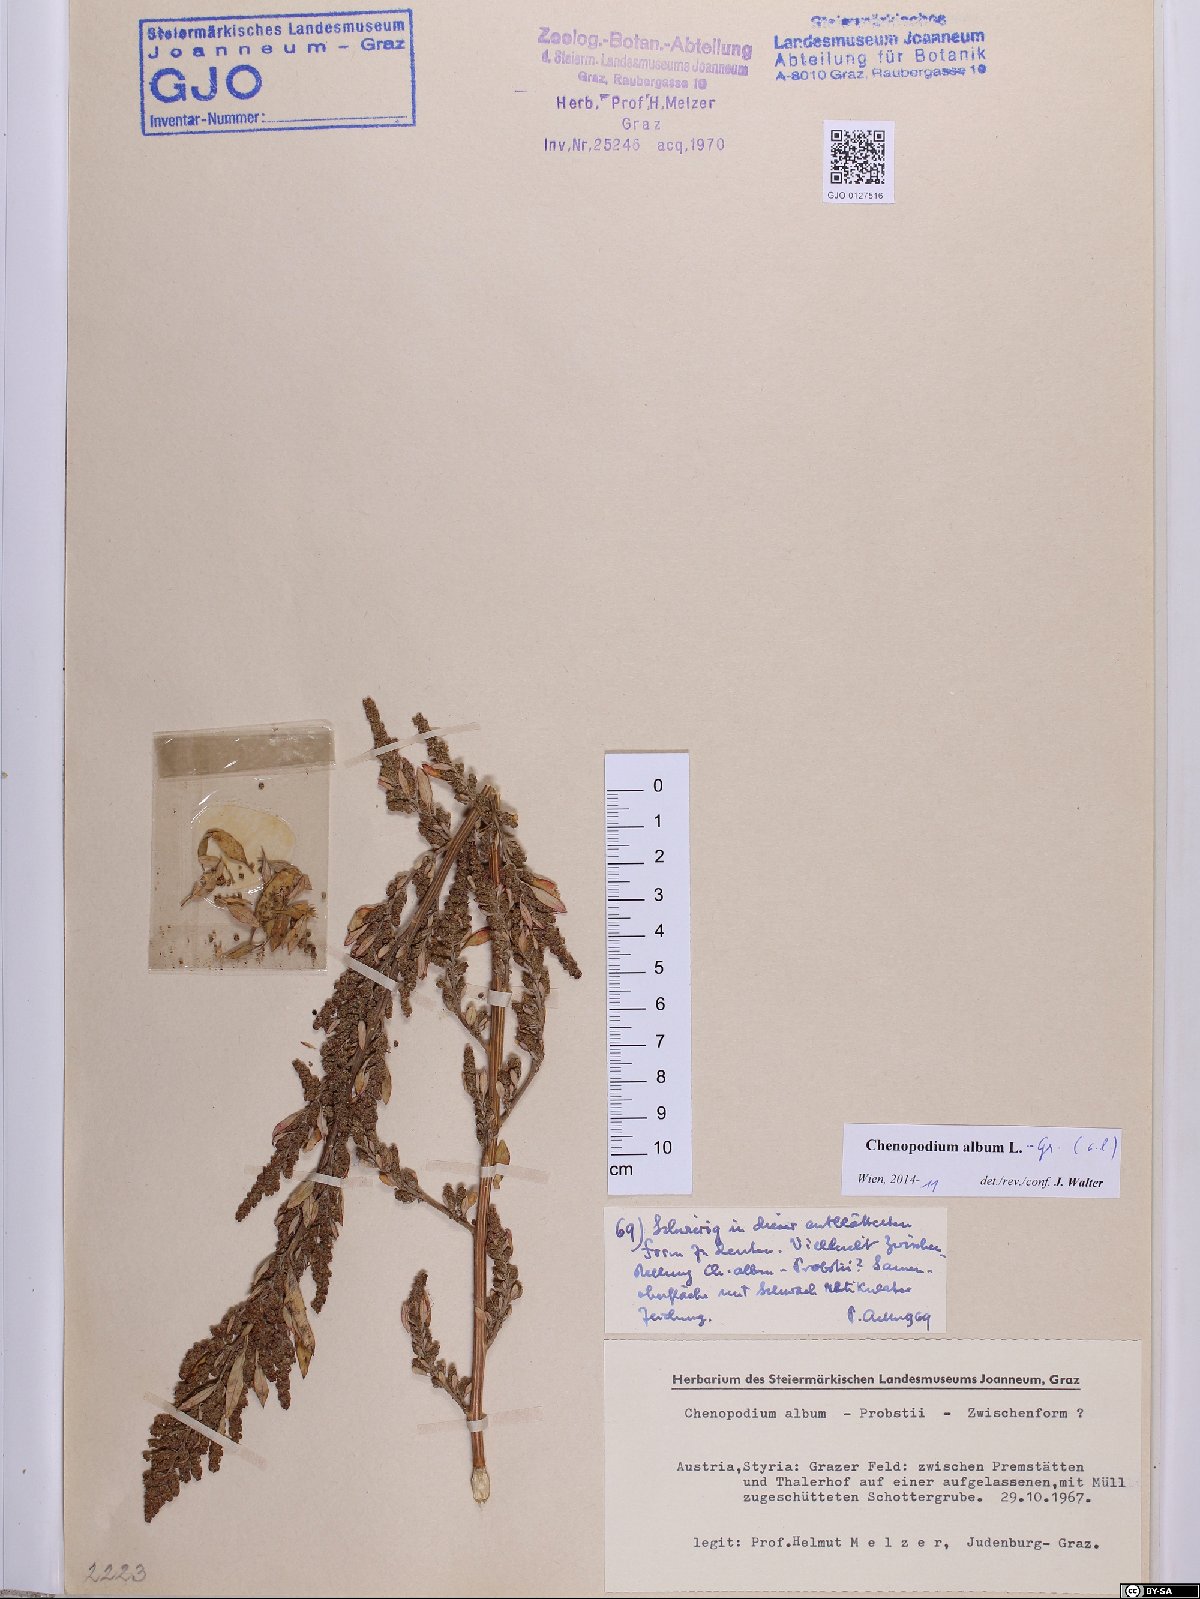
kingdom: Plantae
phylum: Tracheophyta
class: Magnoliopsida
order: Caryophyllales
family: Amaranthaceae
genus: Chenopodium
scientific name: Chenopodium album
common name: Fat-hen
